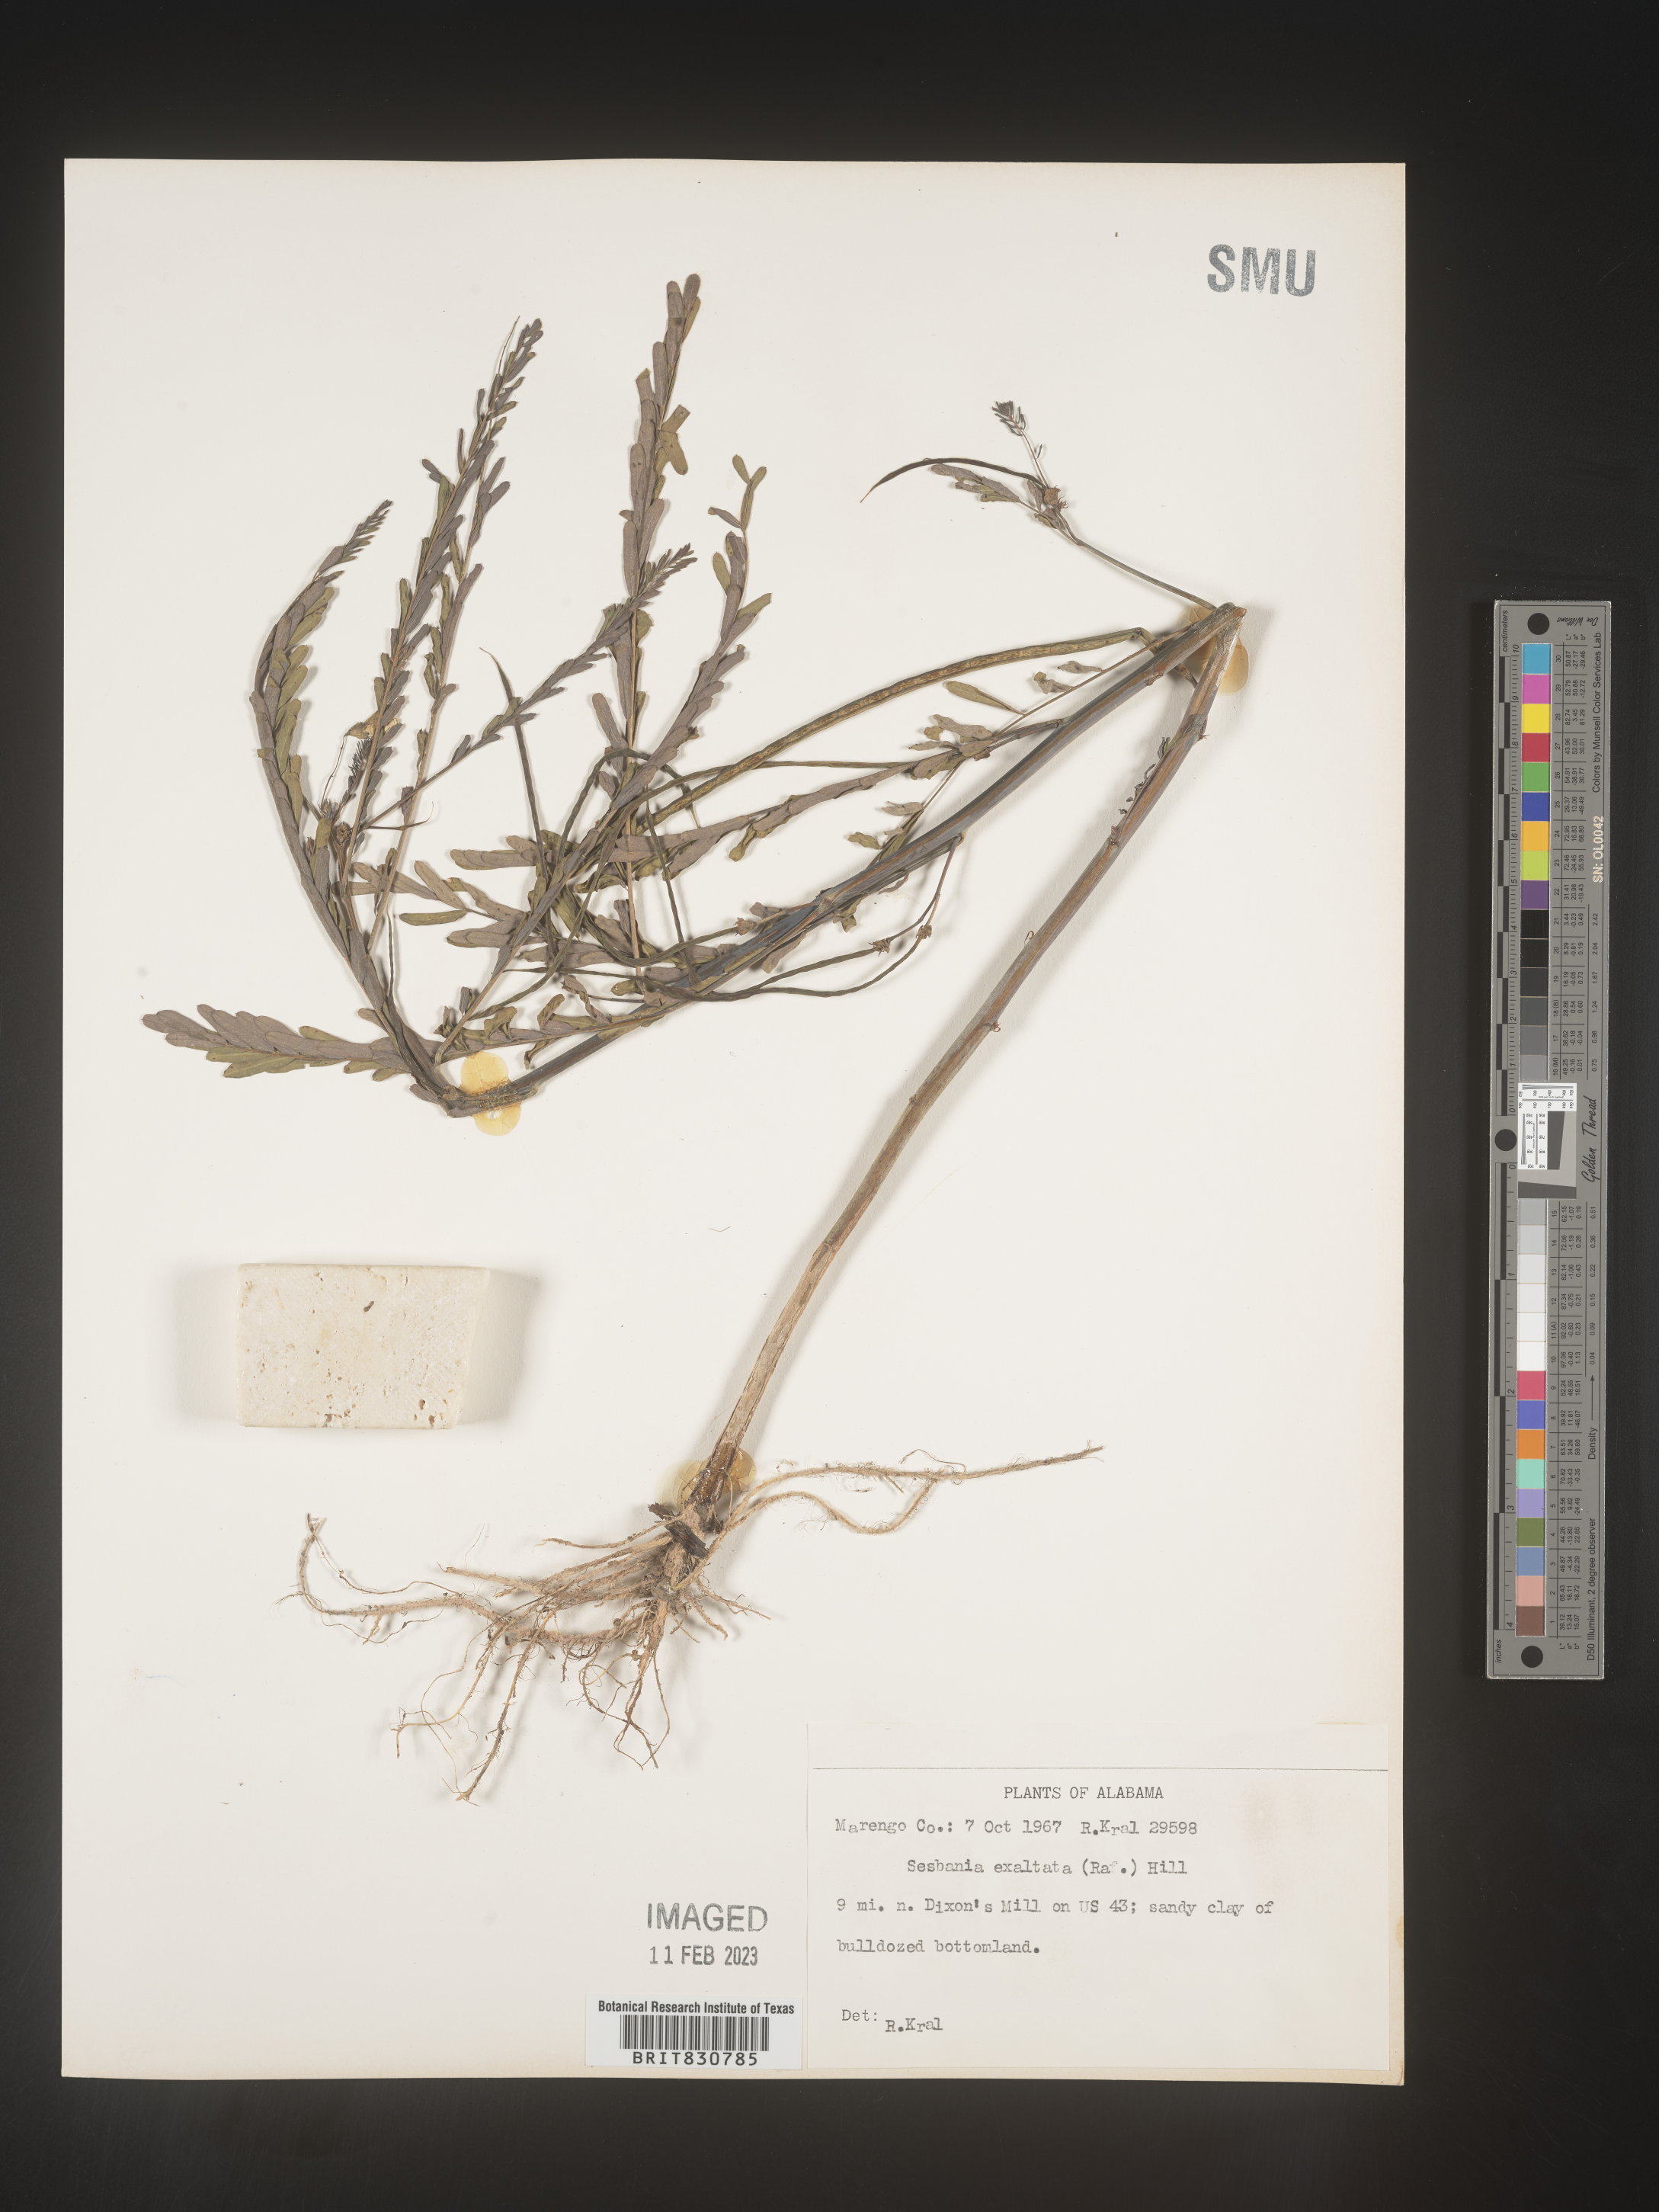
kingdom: Plantae
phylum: Tracheophyta
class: Magnoliopsida
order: Fabales
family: Fabaceae
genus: Sesbania
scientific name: Sesbania vesicaria
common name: Bagpod
